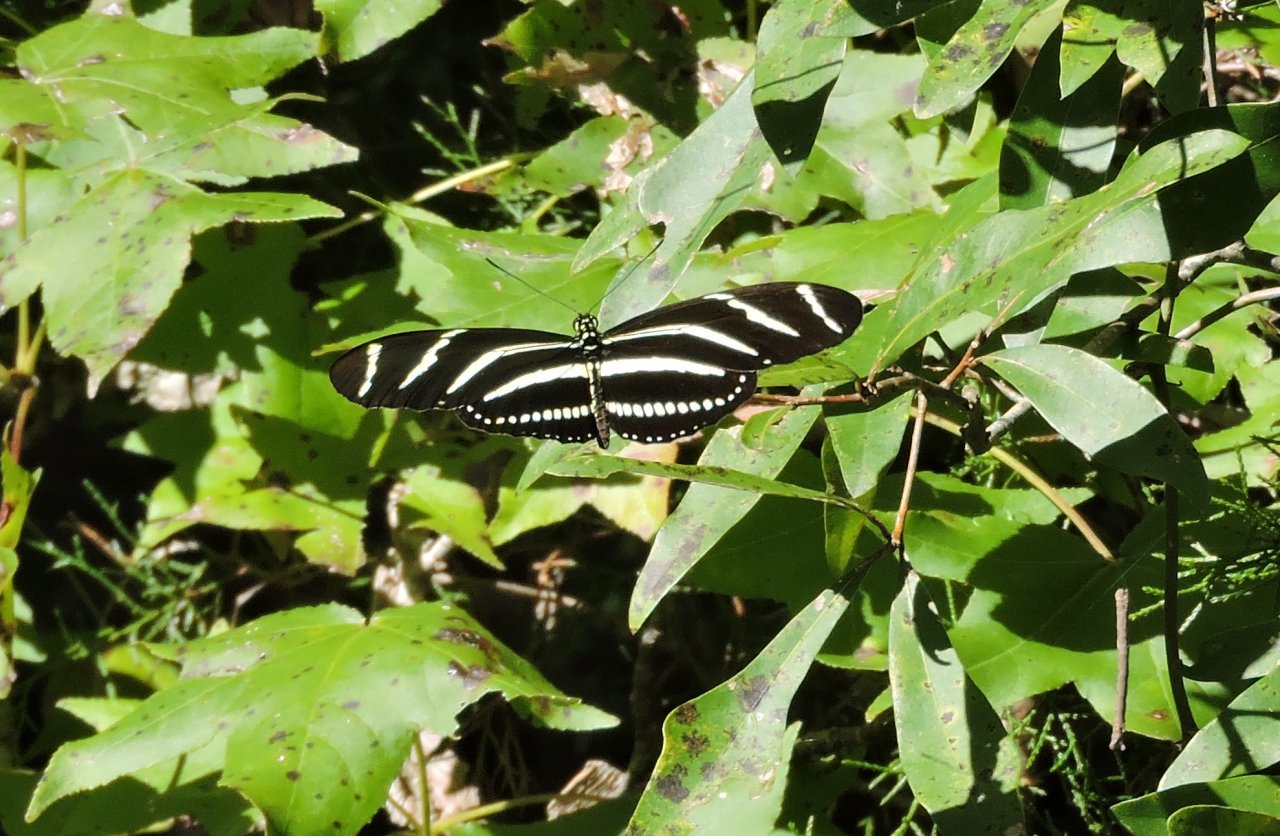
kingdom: Animalia
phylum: Arthropoda
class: Insecta
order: Lepidoptera
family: Nymphalidae
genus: Heliconius
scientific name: Heliconius charithonia
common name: Zebra Longwing
